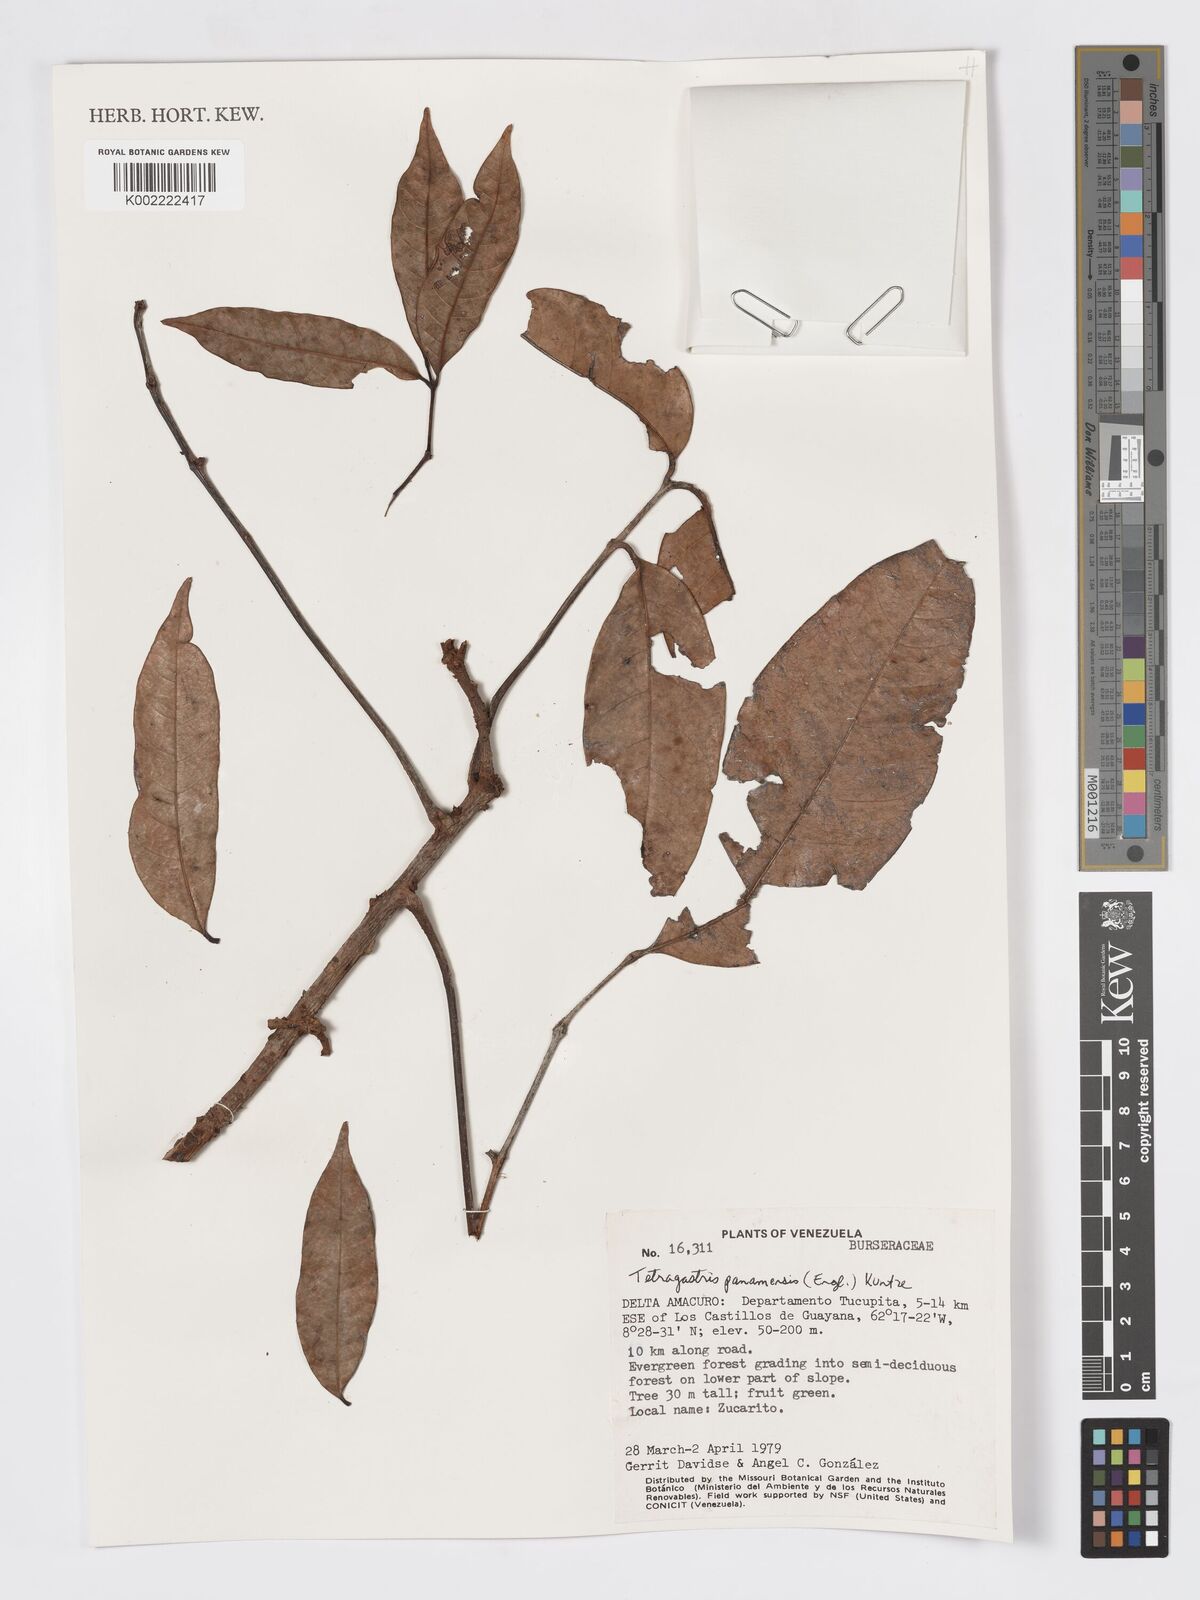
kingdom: Plantae
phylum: Tracheophyta
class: Magnoliopsida
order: Sapindales
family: Burseraceae
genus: Tetragastris
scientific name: Tetragastris panamensis
